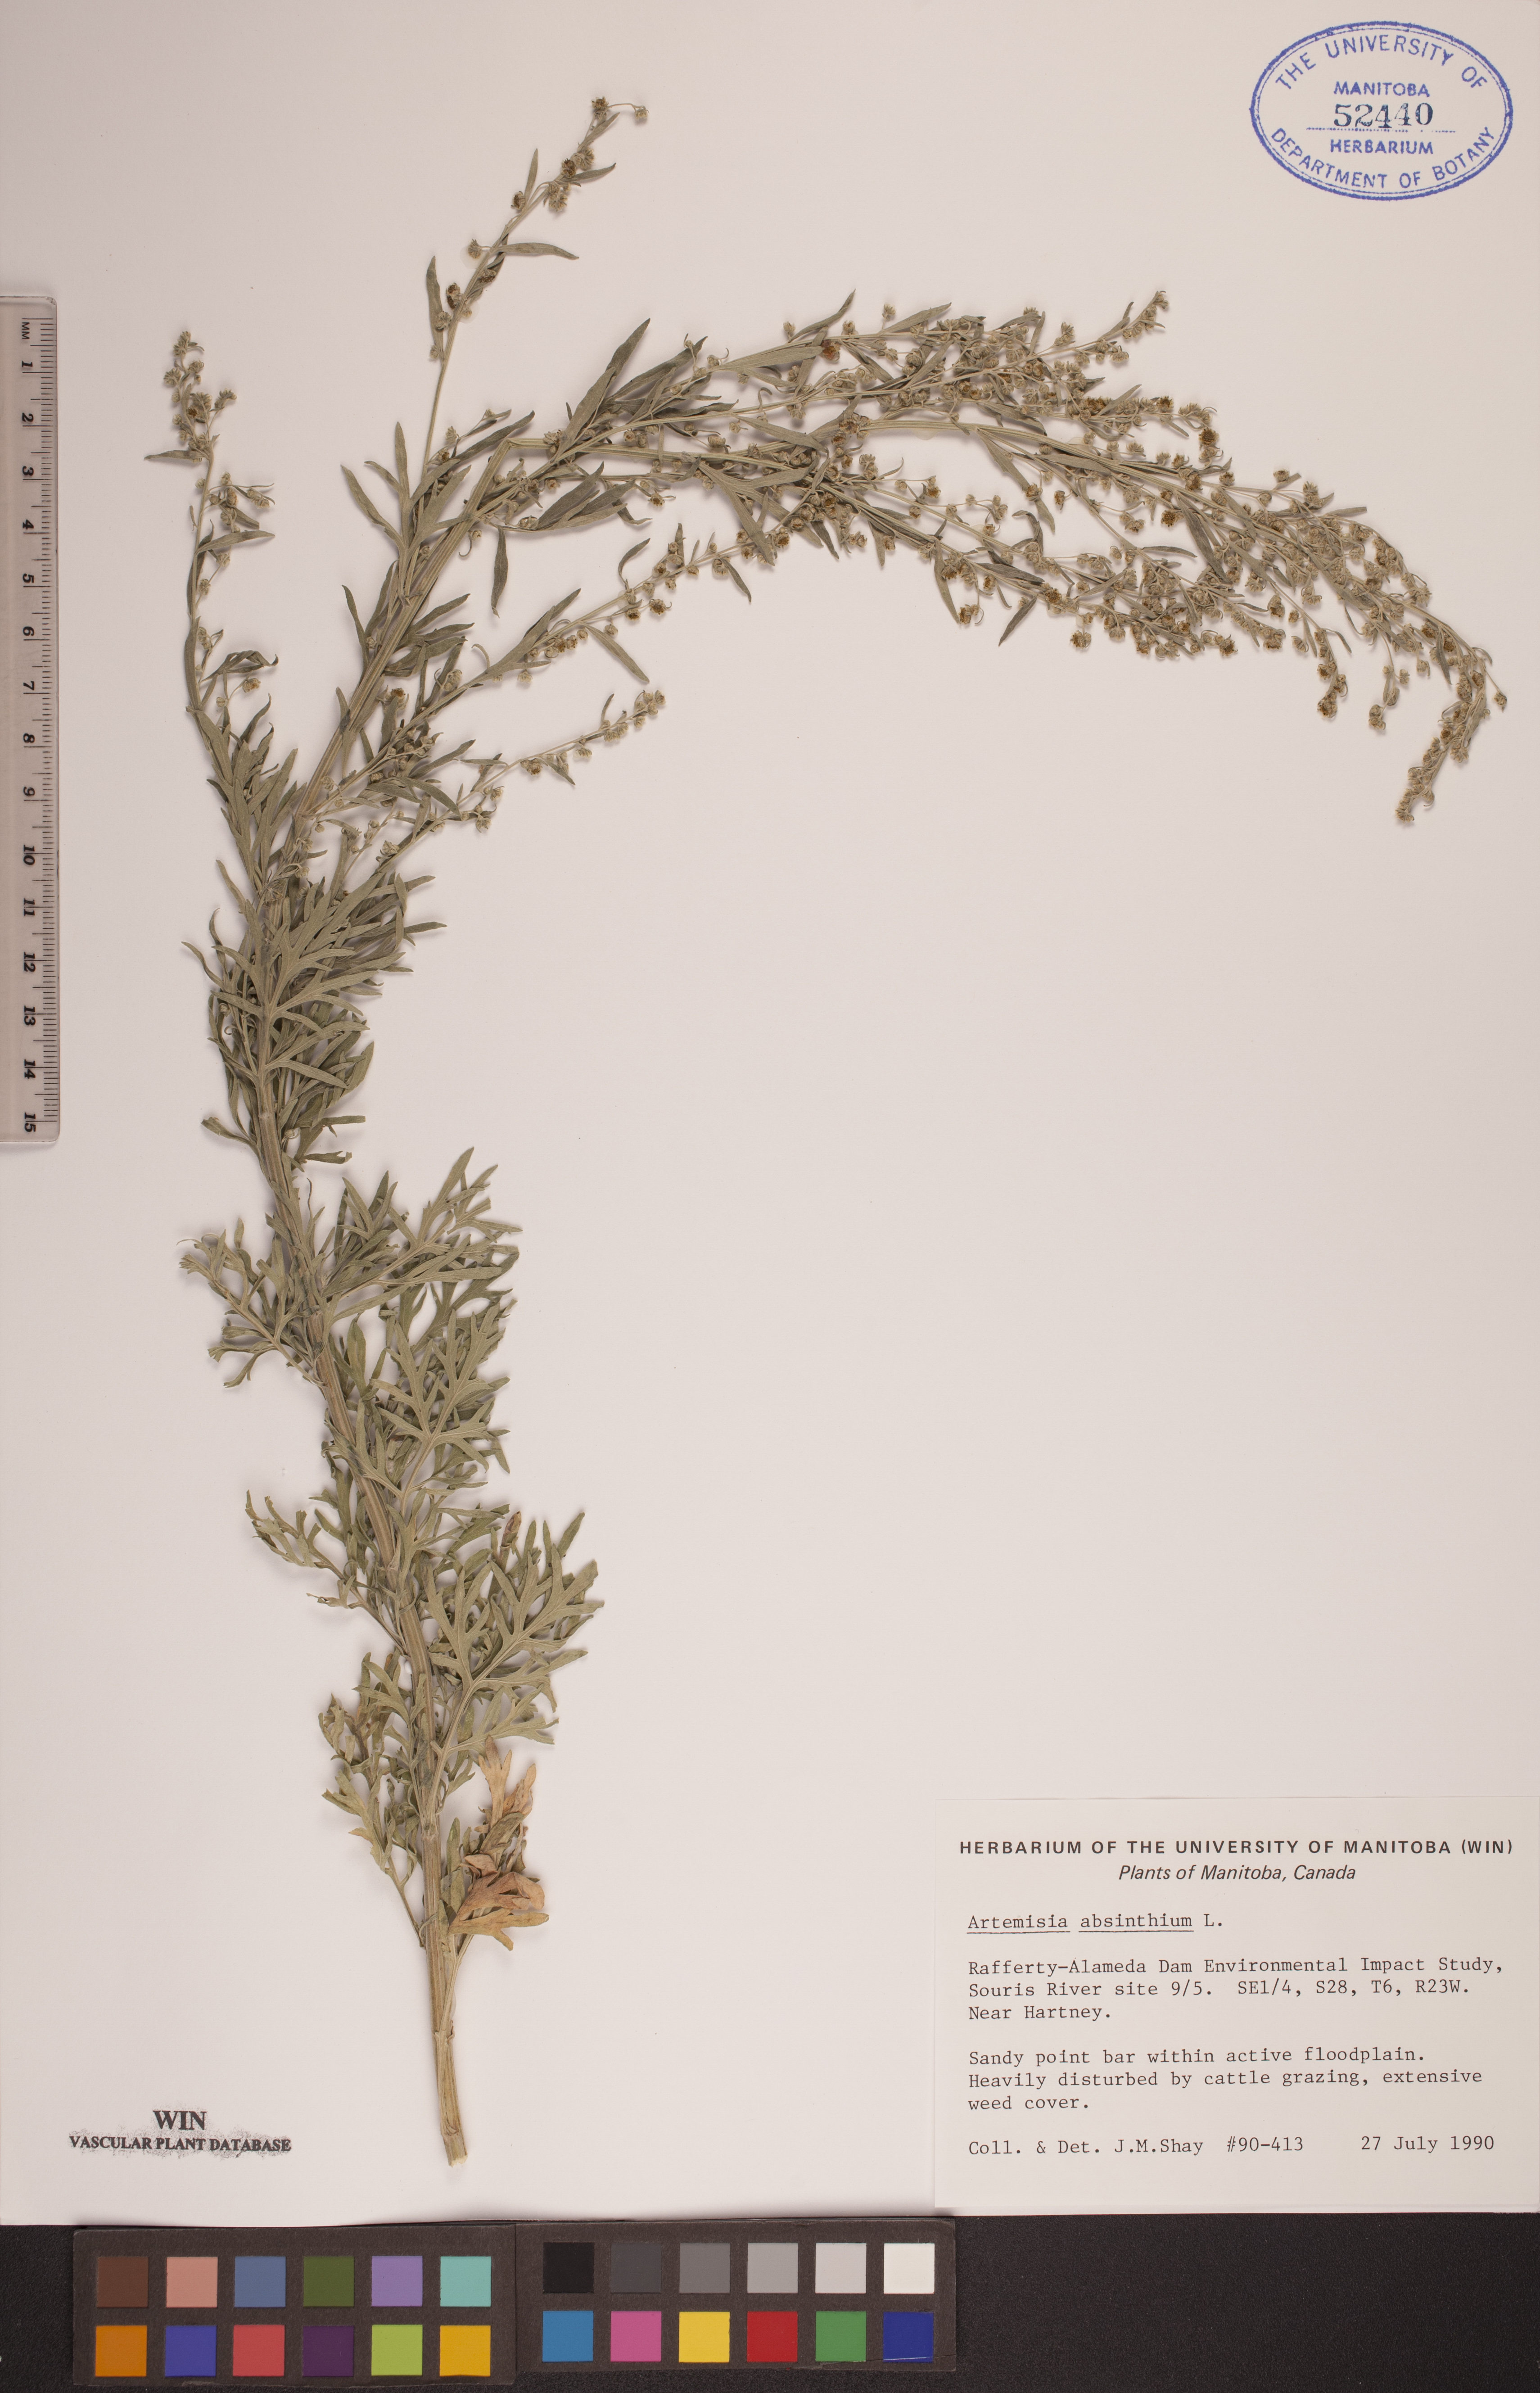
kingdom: Plantae
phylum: Tracheophyta
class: Magnoliopsida
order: Asterales
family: Asteraceae
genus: Artemisia
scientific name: Artemisia absinthium
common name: Wormwood
